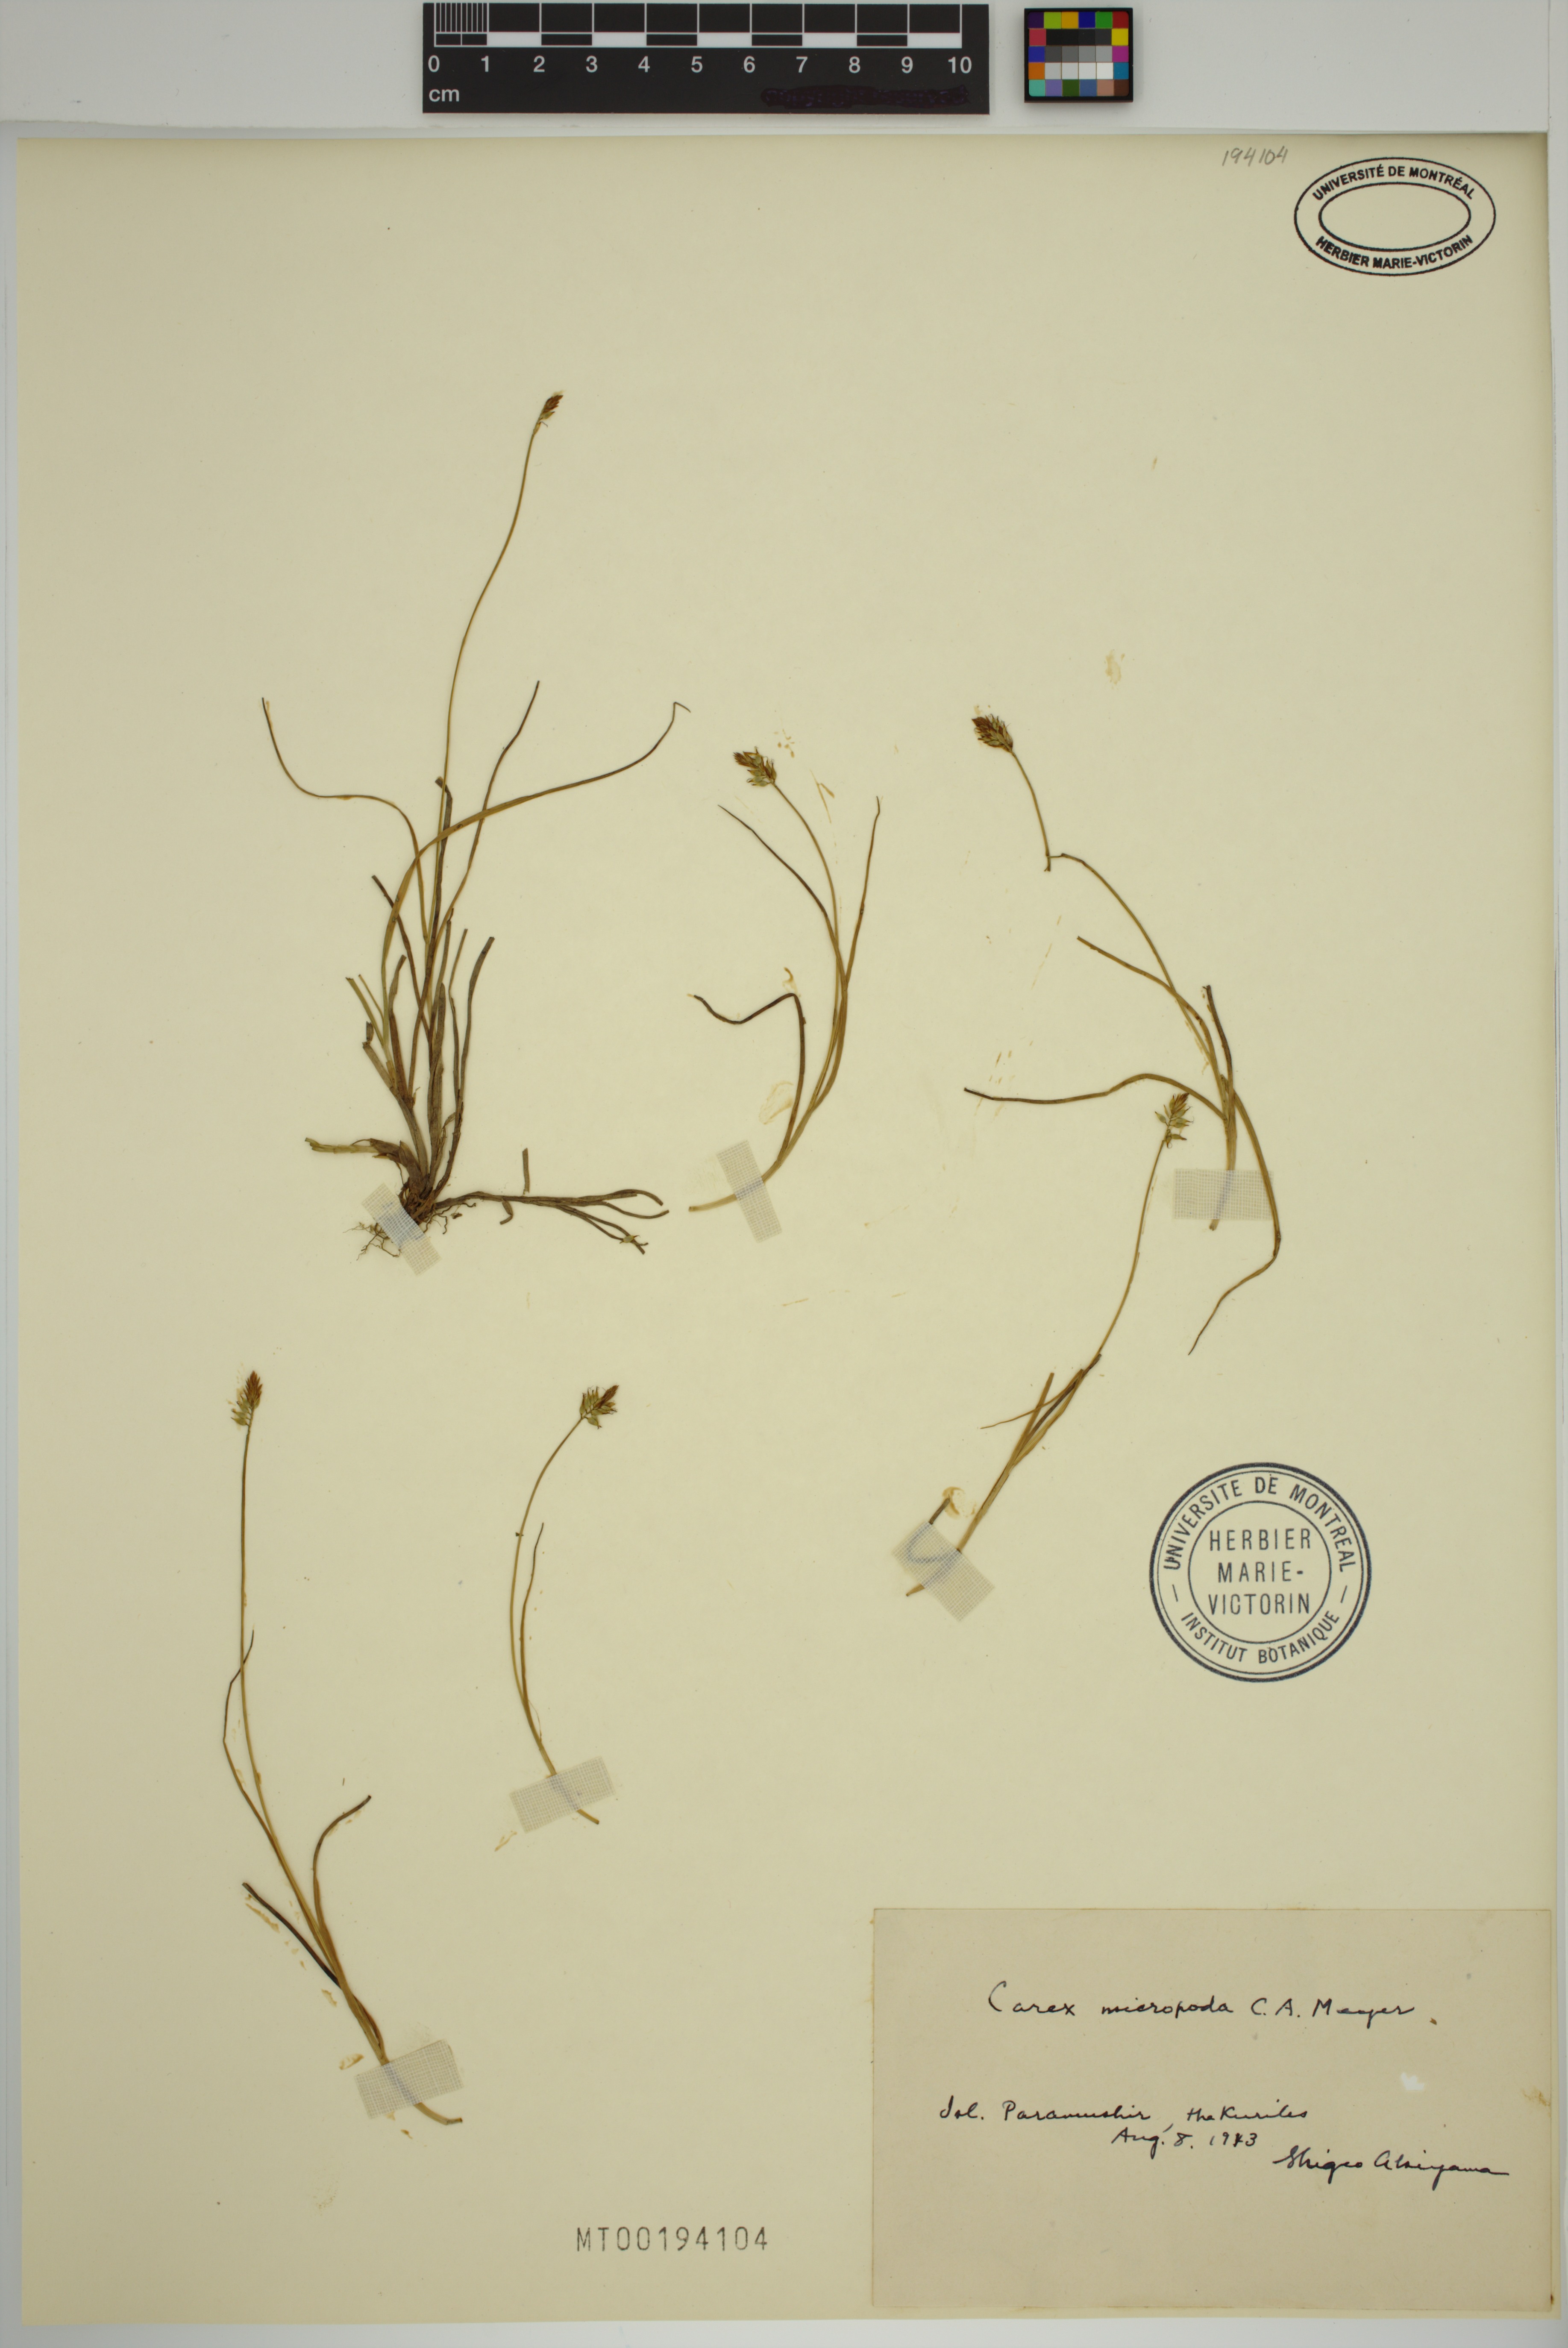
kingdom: Plantae
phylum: Tracheophyta
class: Liliopsida
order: Poales
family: Cyperaceae
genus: Carex
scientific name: Carex micropoda
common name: Small-rooted sedge
